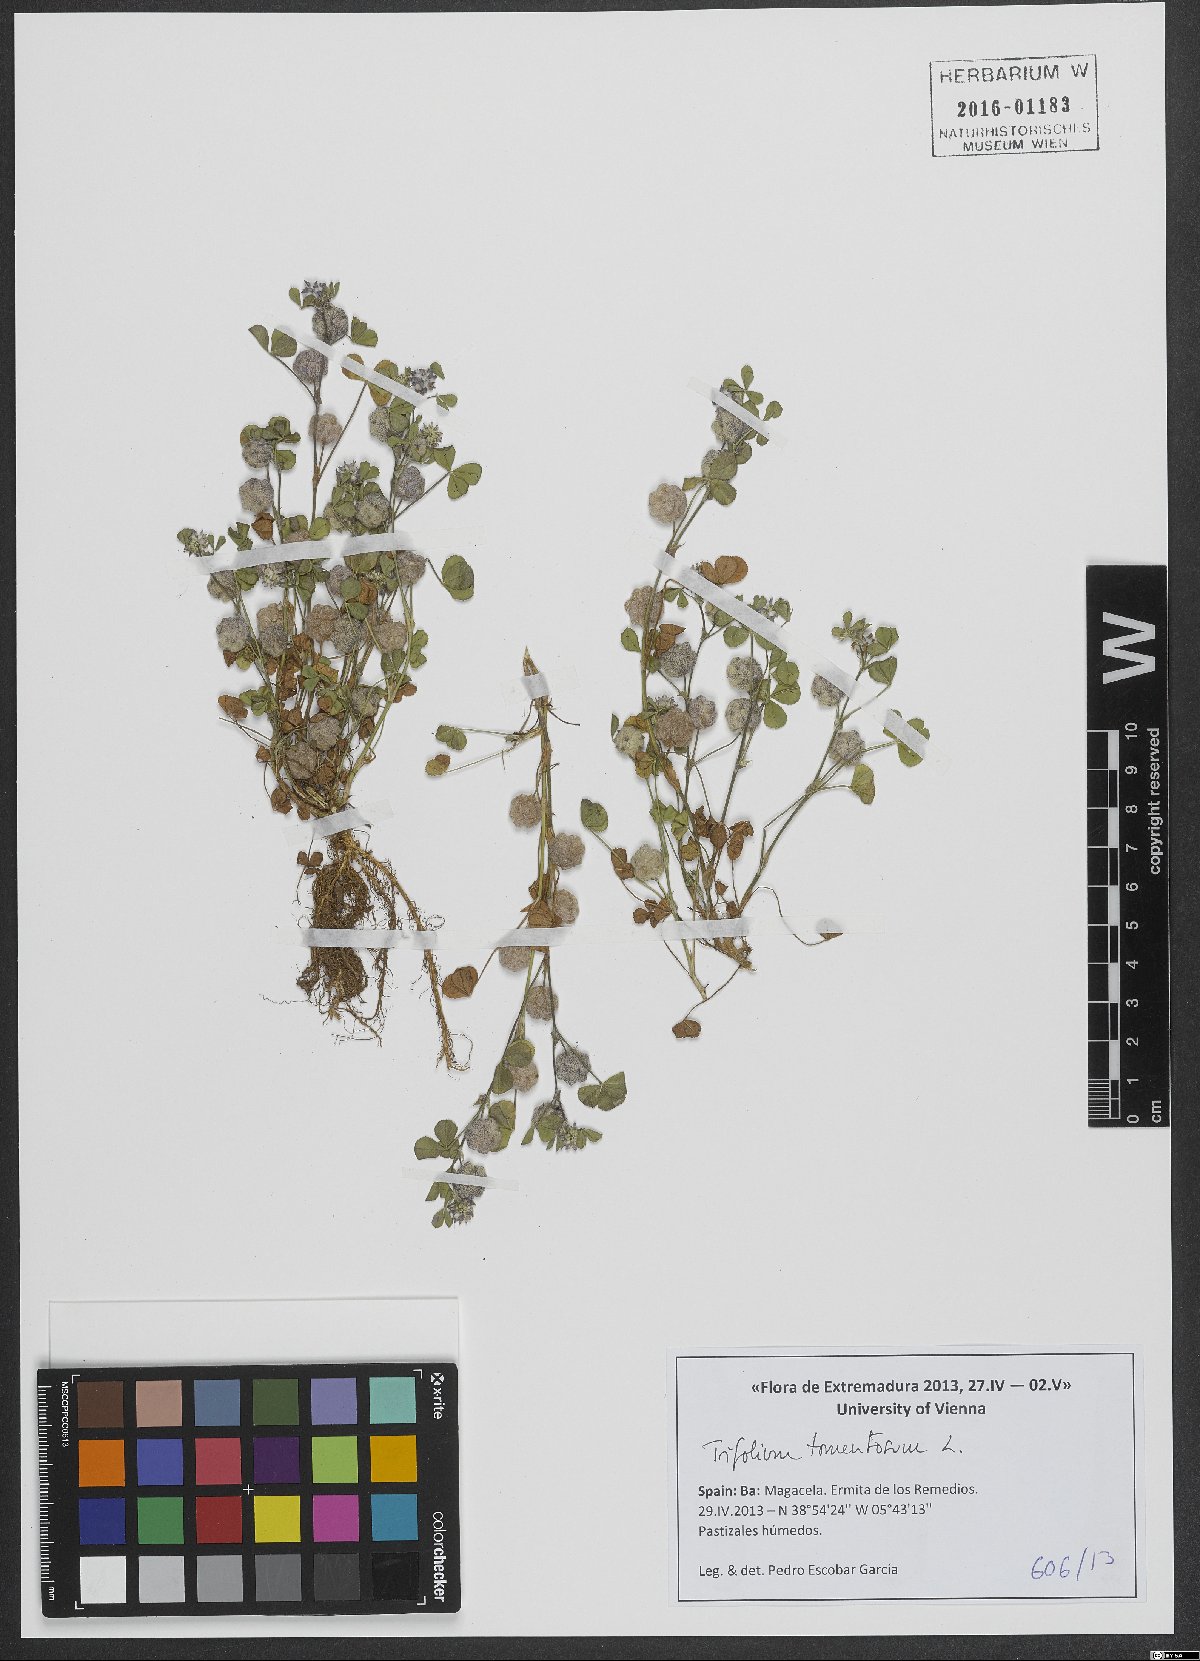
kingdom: Plantae
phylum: Tracheophyta
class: Magnoliopsida
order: Fabales
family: Fabaceae
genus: Trifolium
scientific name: Trifolium tomentosum
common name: Woolly clover
